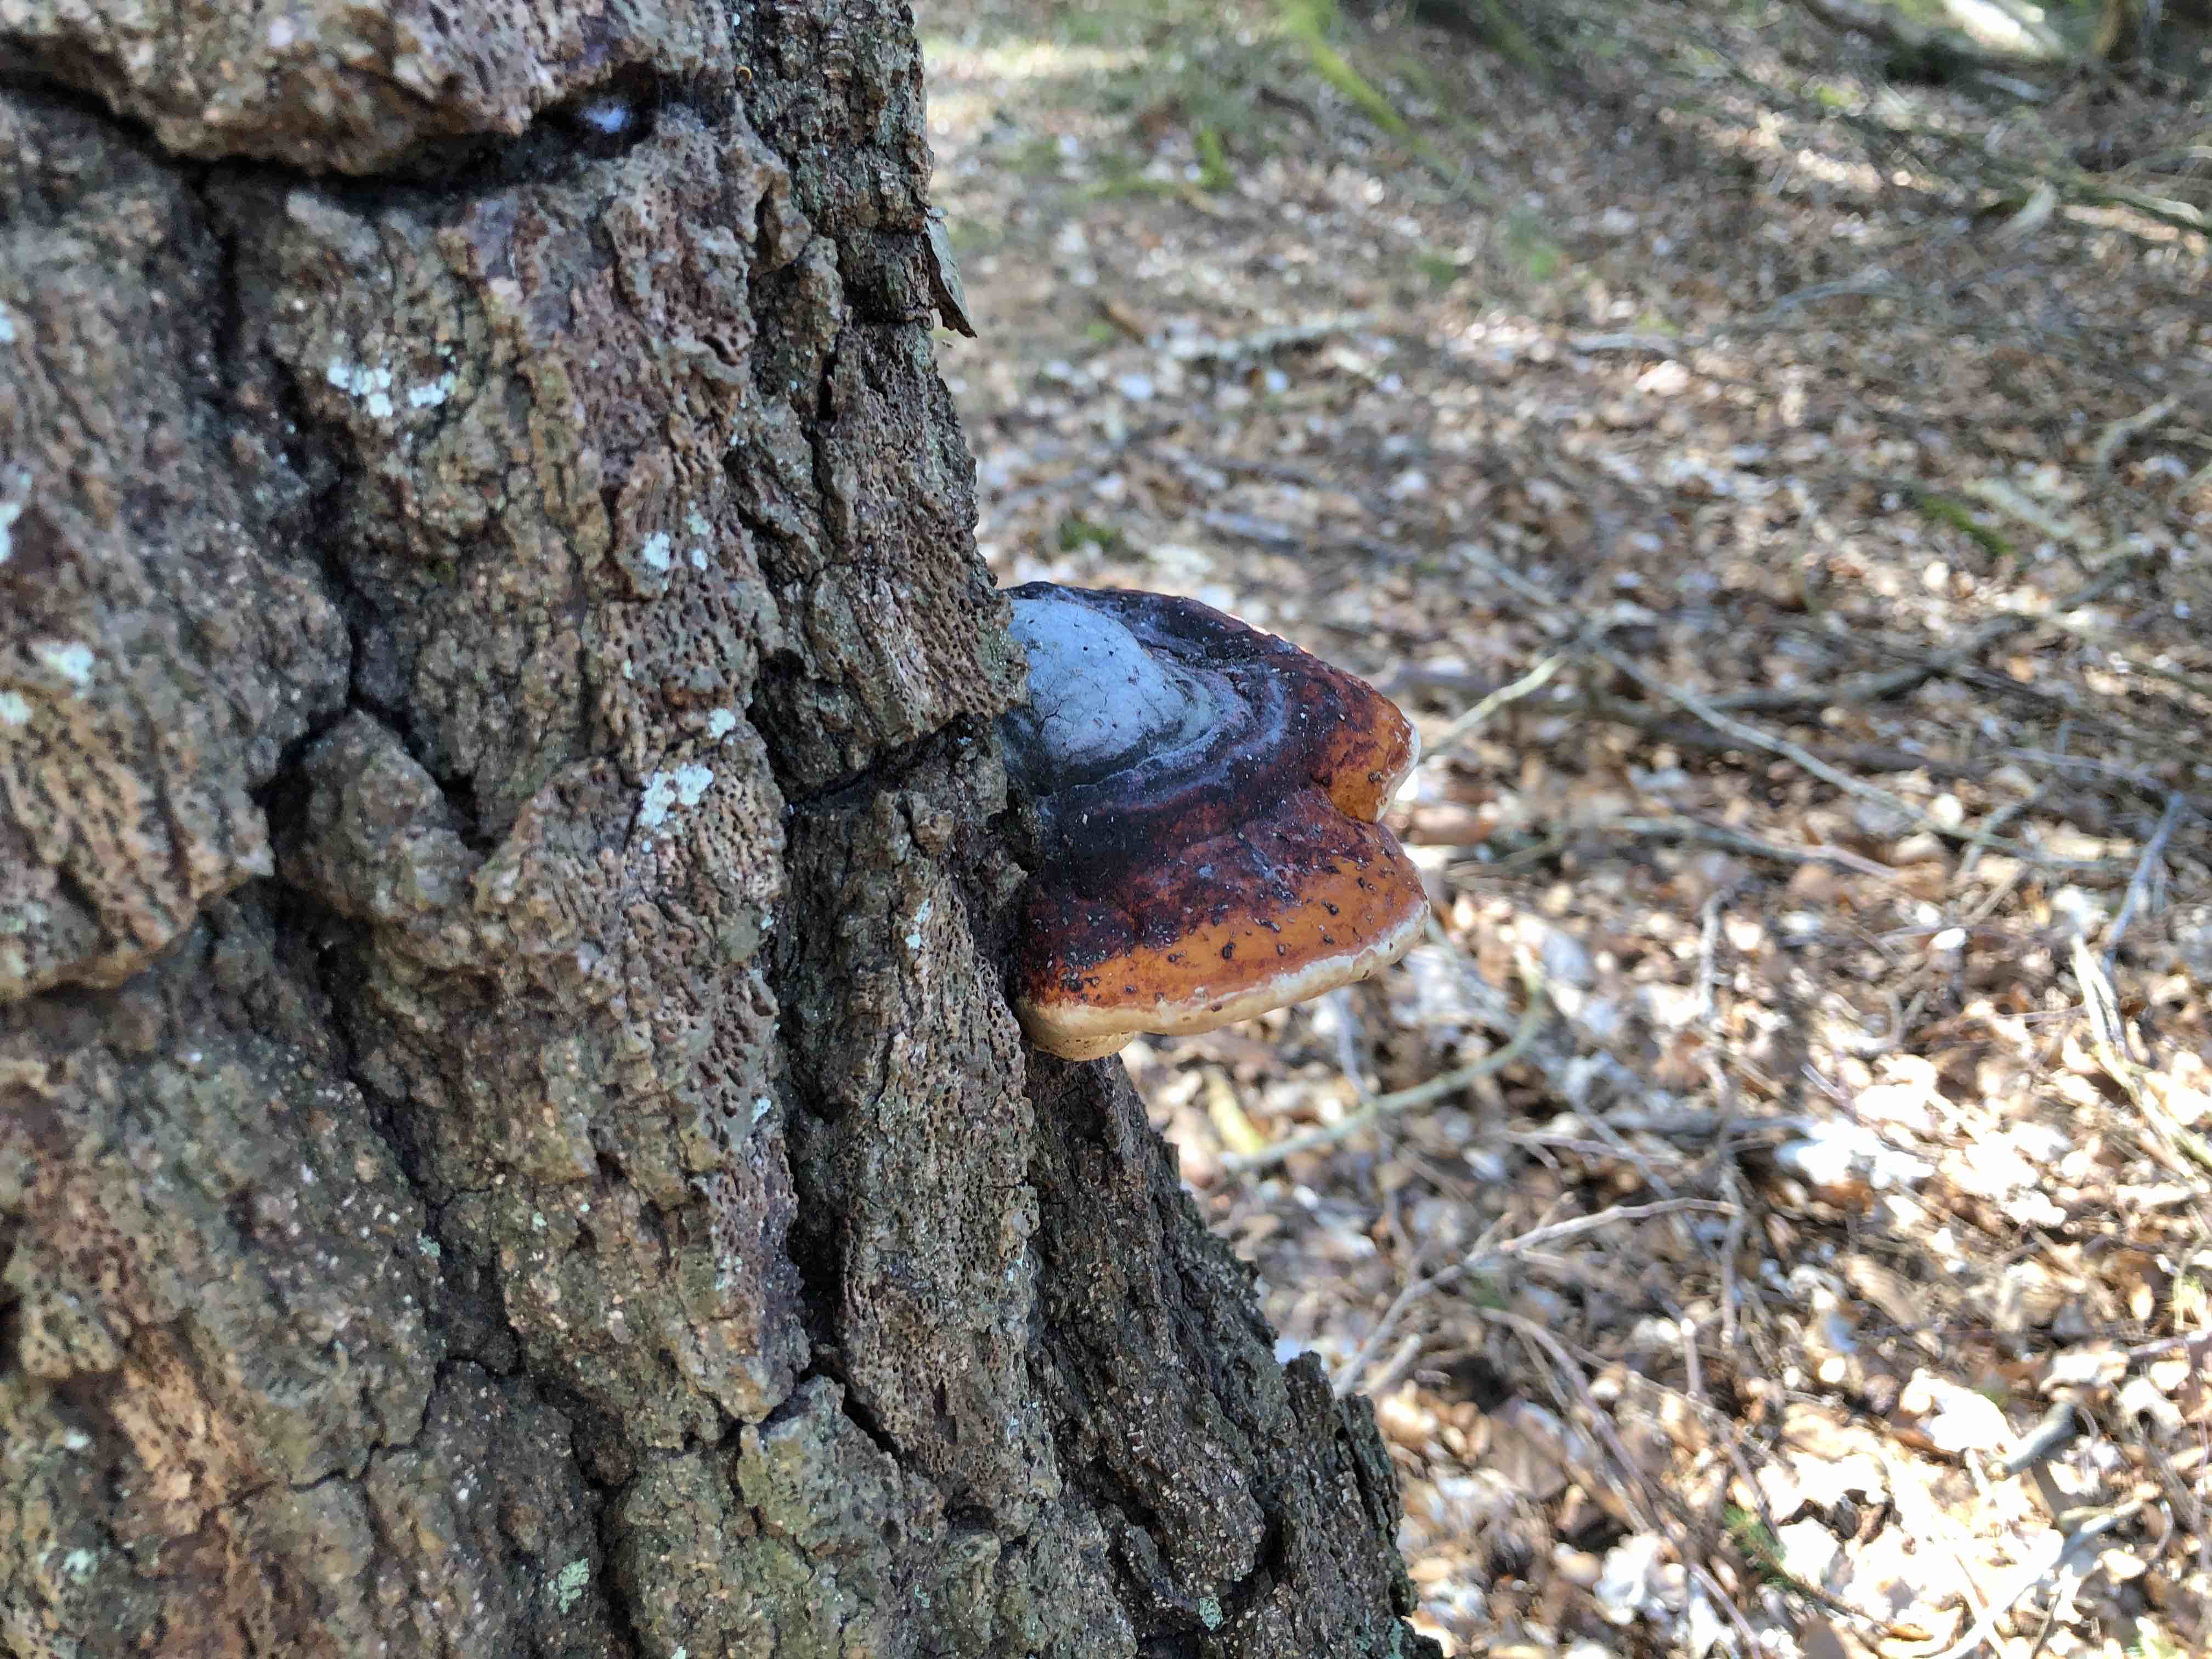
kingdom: Fungi
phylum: Basidiomycota
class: Agaricomycetes
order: Polyporales
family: Fomitopsidaceae
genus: Fomitopsis
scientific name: Fomitopsis pinicola
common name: randbæltet hovporesvamp
